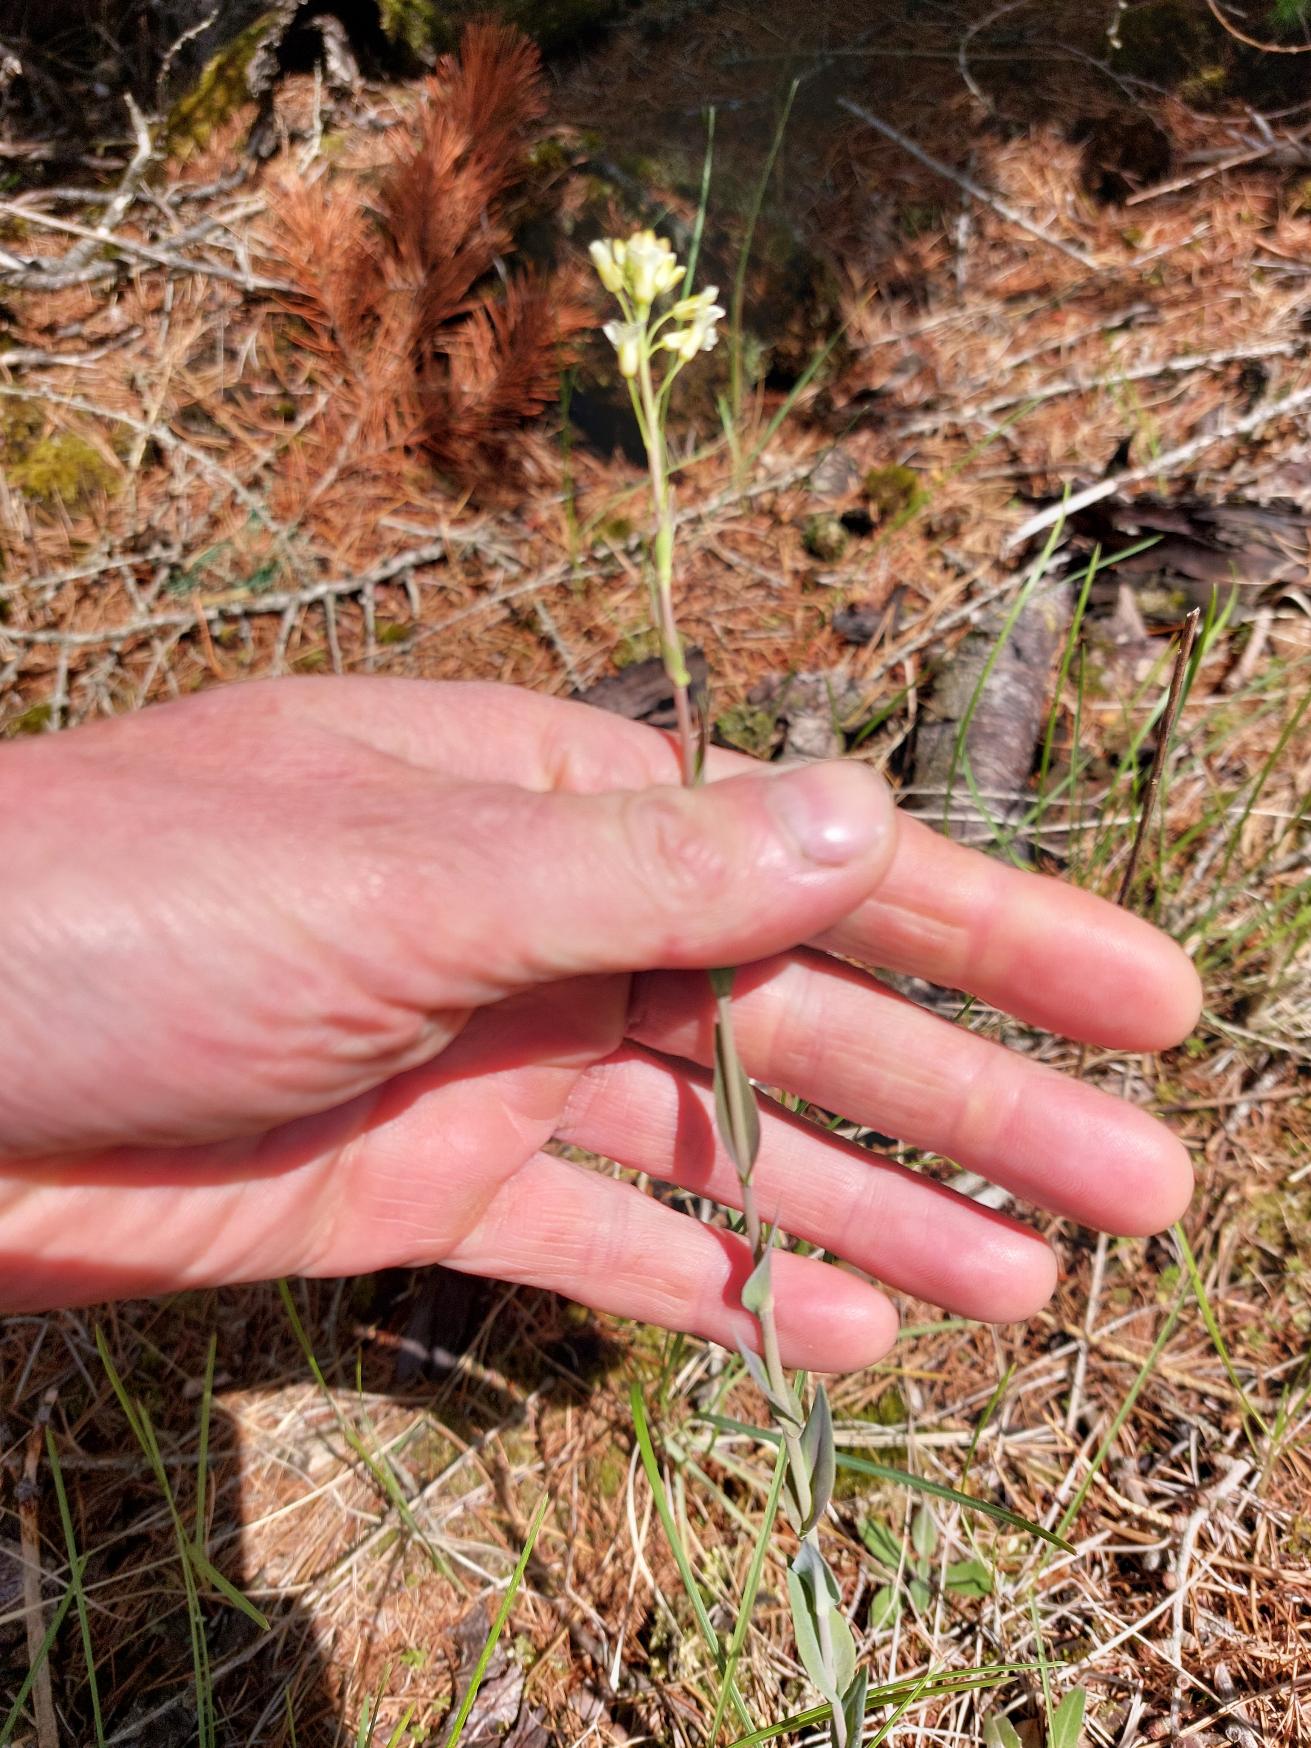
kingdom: Plantae
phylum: Tracheophyta
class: Magnoliopsida
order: Brassicales
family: Brassicaceae
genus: Turritis
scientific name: Turritis glabra
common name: Tårnurt
